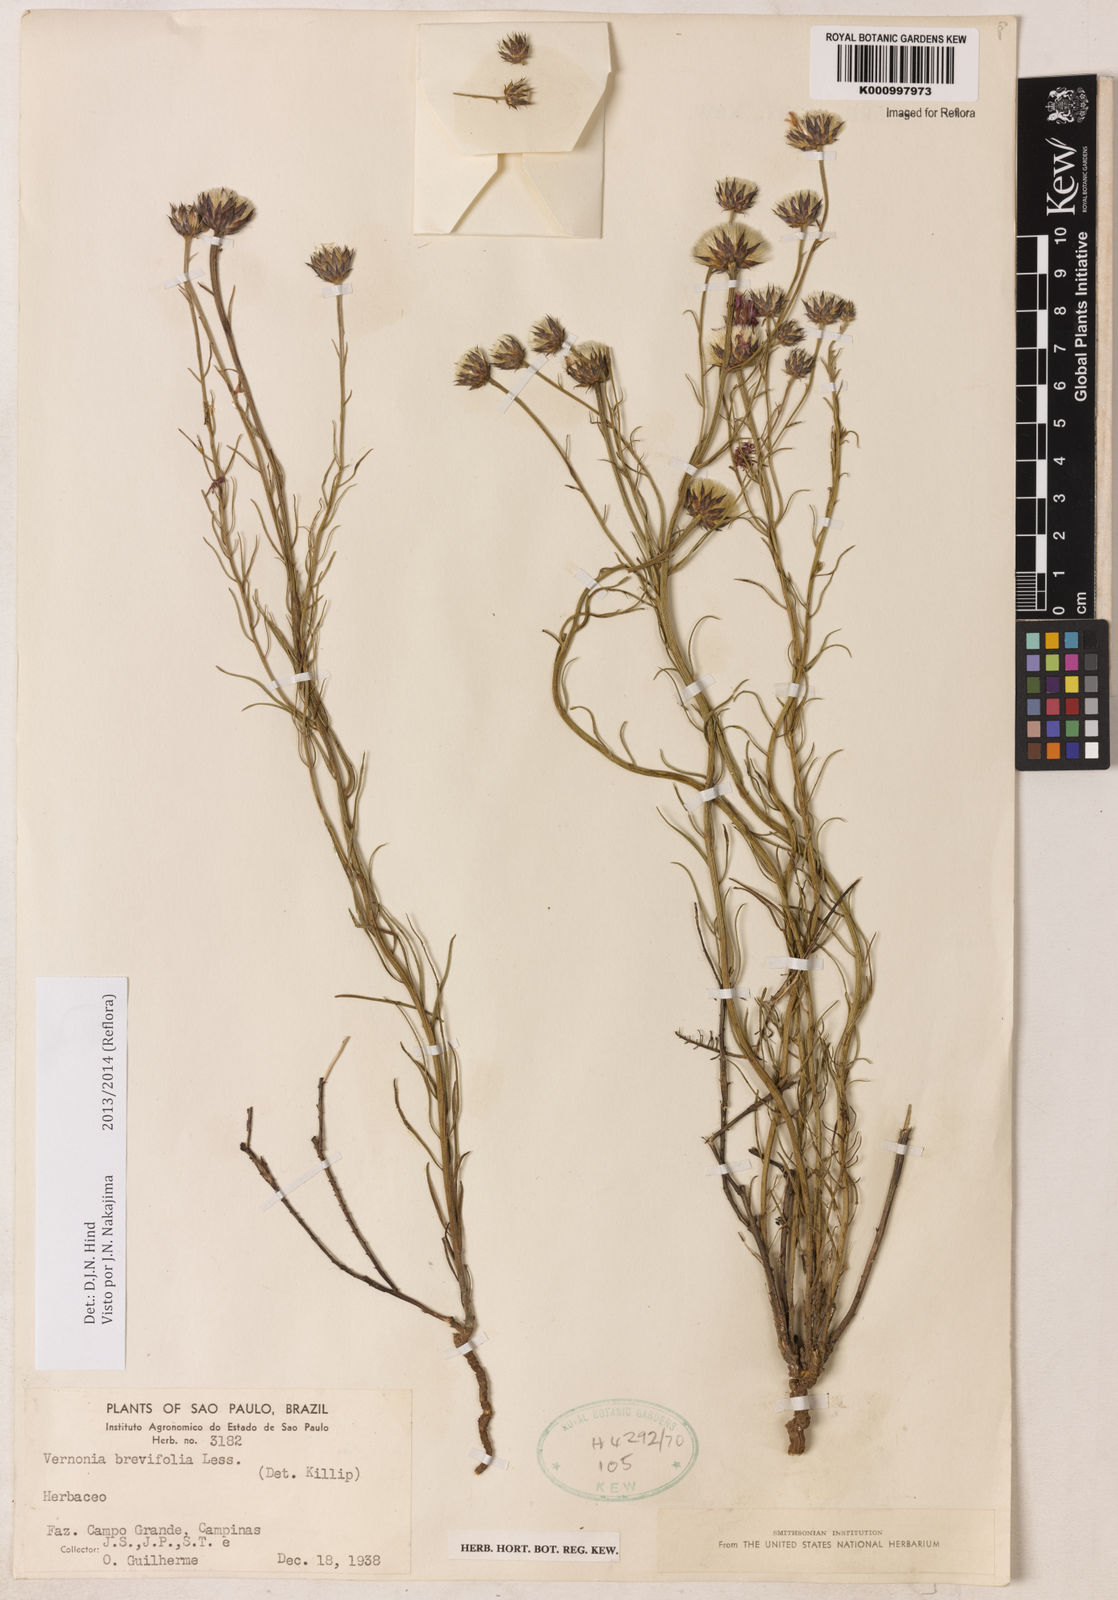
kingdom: Plantae
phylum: Tracheophyta
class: Magnoliopsida
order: Asterales
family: Asteraceae
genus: Lessingianthus
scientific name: Lessingianthus brevifolius
